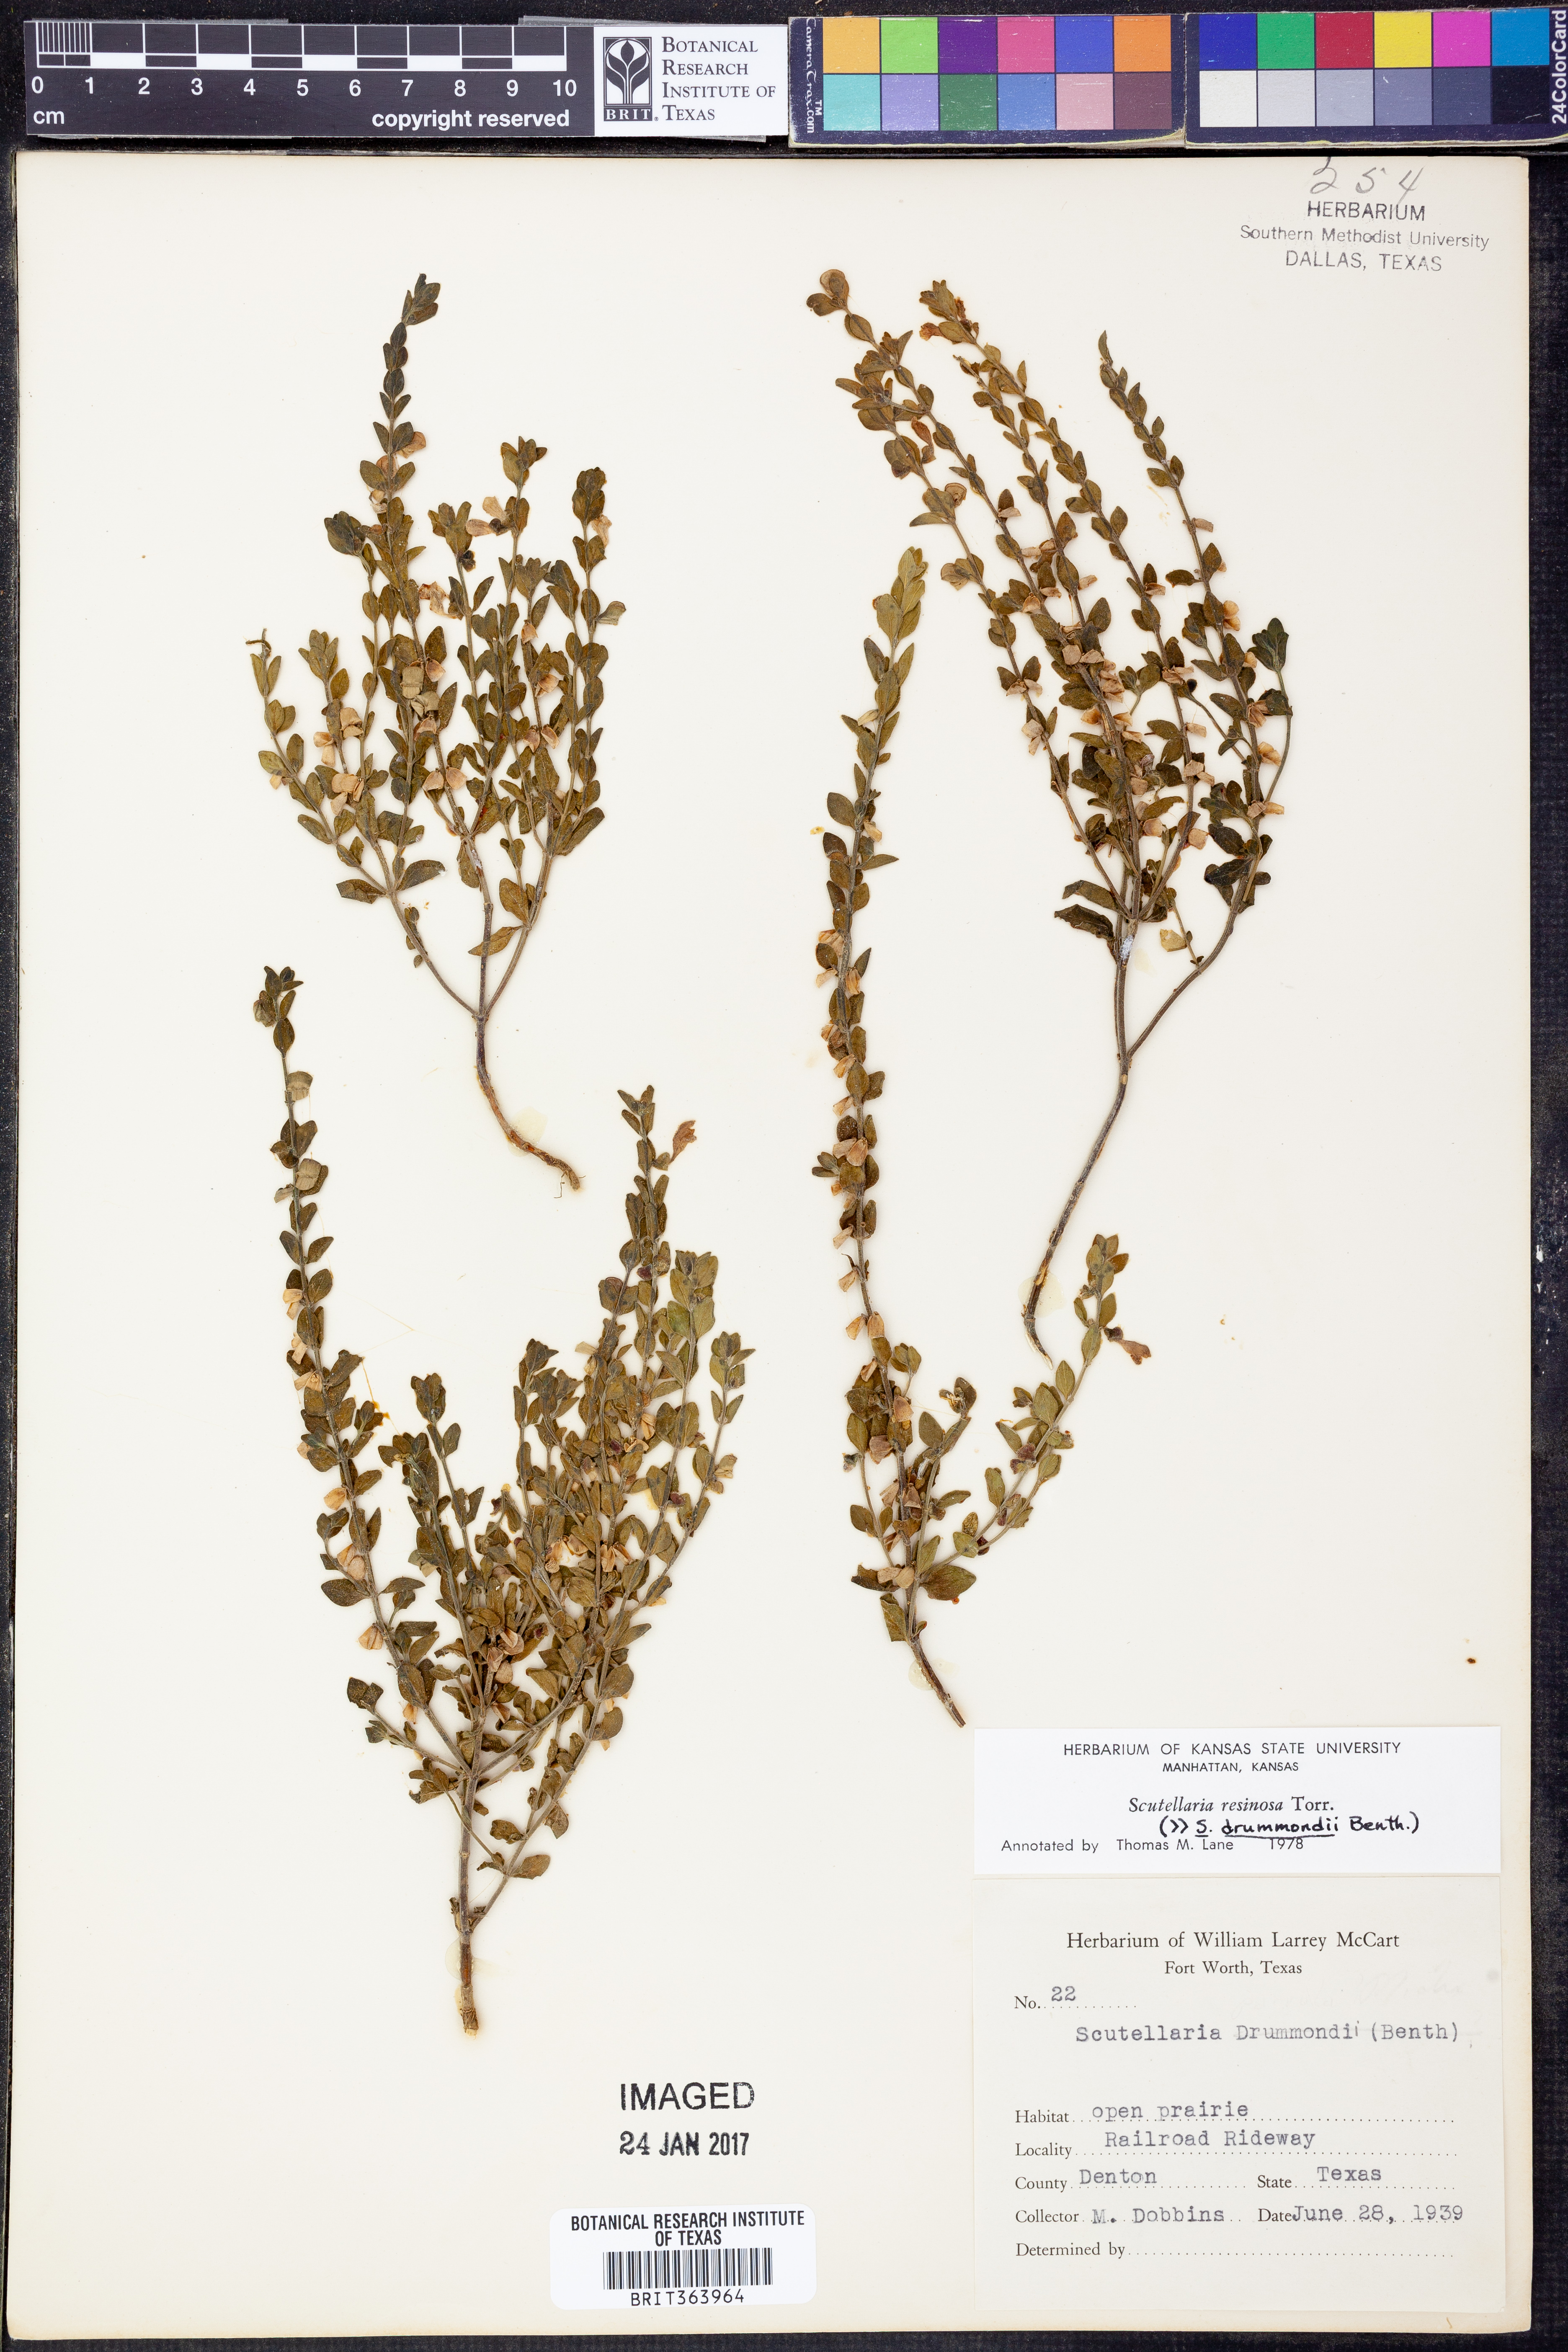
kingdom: Plantae
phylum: Tracheophyta
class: Magnoliopsida
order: Lamiales
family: Lamiaceae
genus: Scutellaria
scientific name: Scutellaria resinosa
